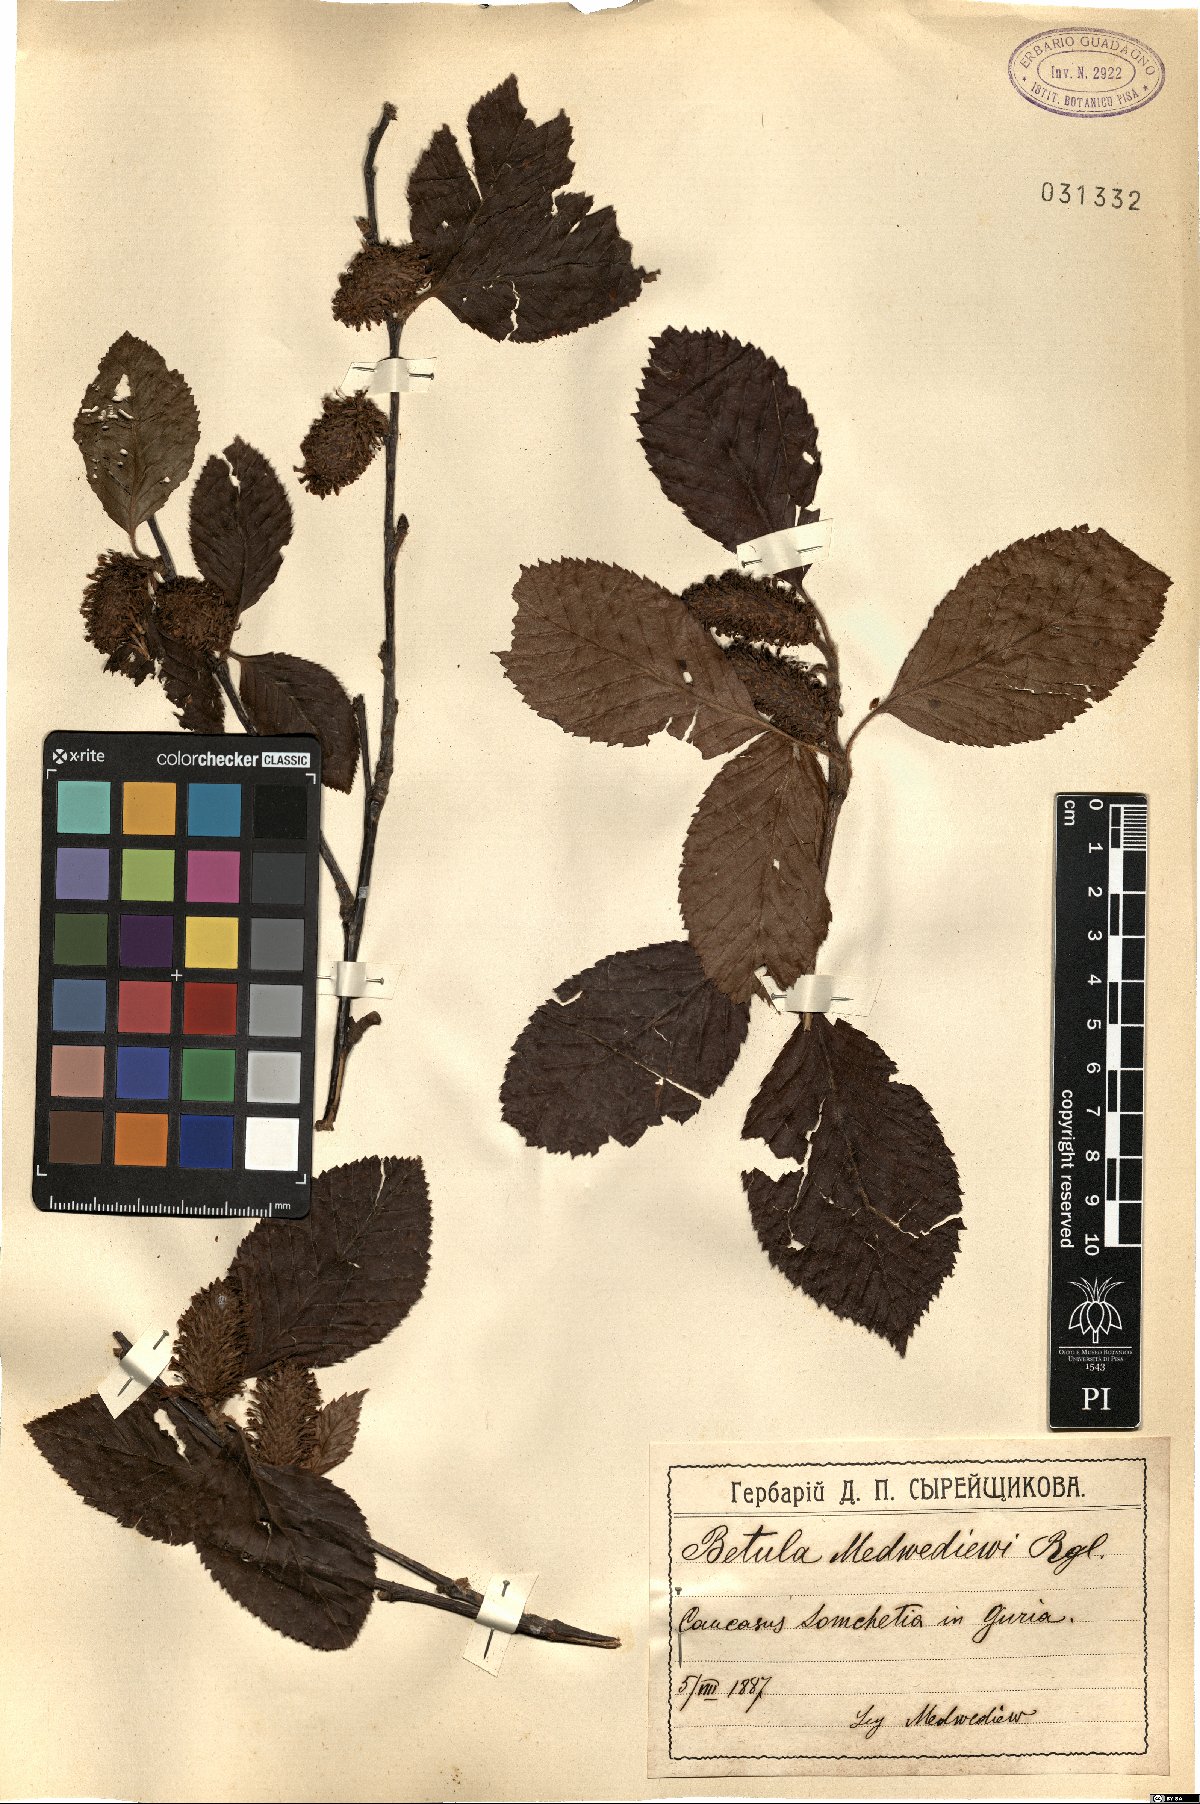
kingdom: Plantae
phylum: Tracheophyta
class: Magnoliopsida
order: Fagales
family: Betulaceae
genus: Betula
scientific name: Betula medwediewii
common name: Medwediew's birch
